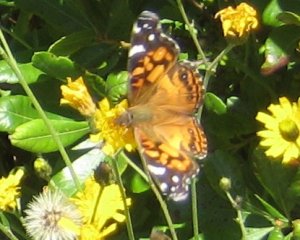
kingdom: Animalia
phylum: Arthropoda
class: Insecta
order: Lepidoptera
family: Nymphalidae
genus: Vanessa
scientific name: Vanessa cardui
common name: Painted Lady
